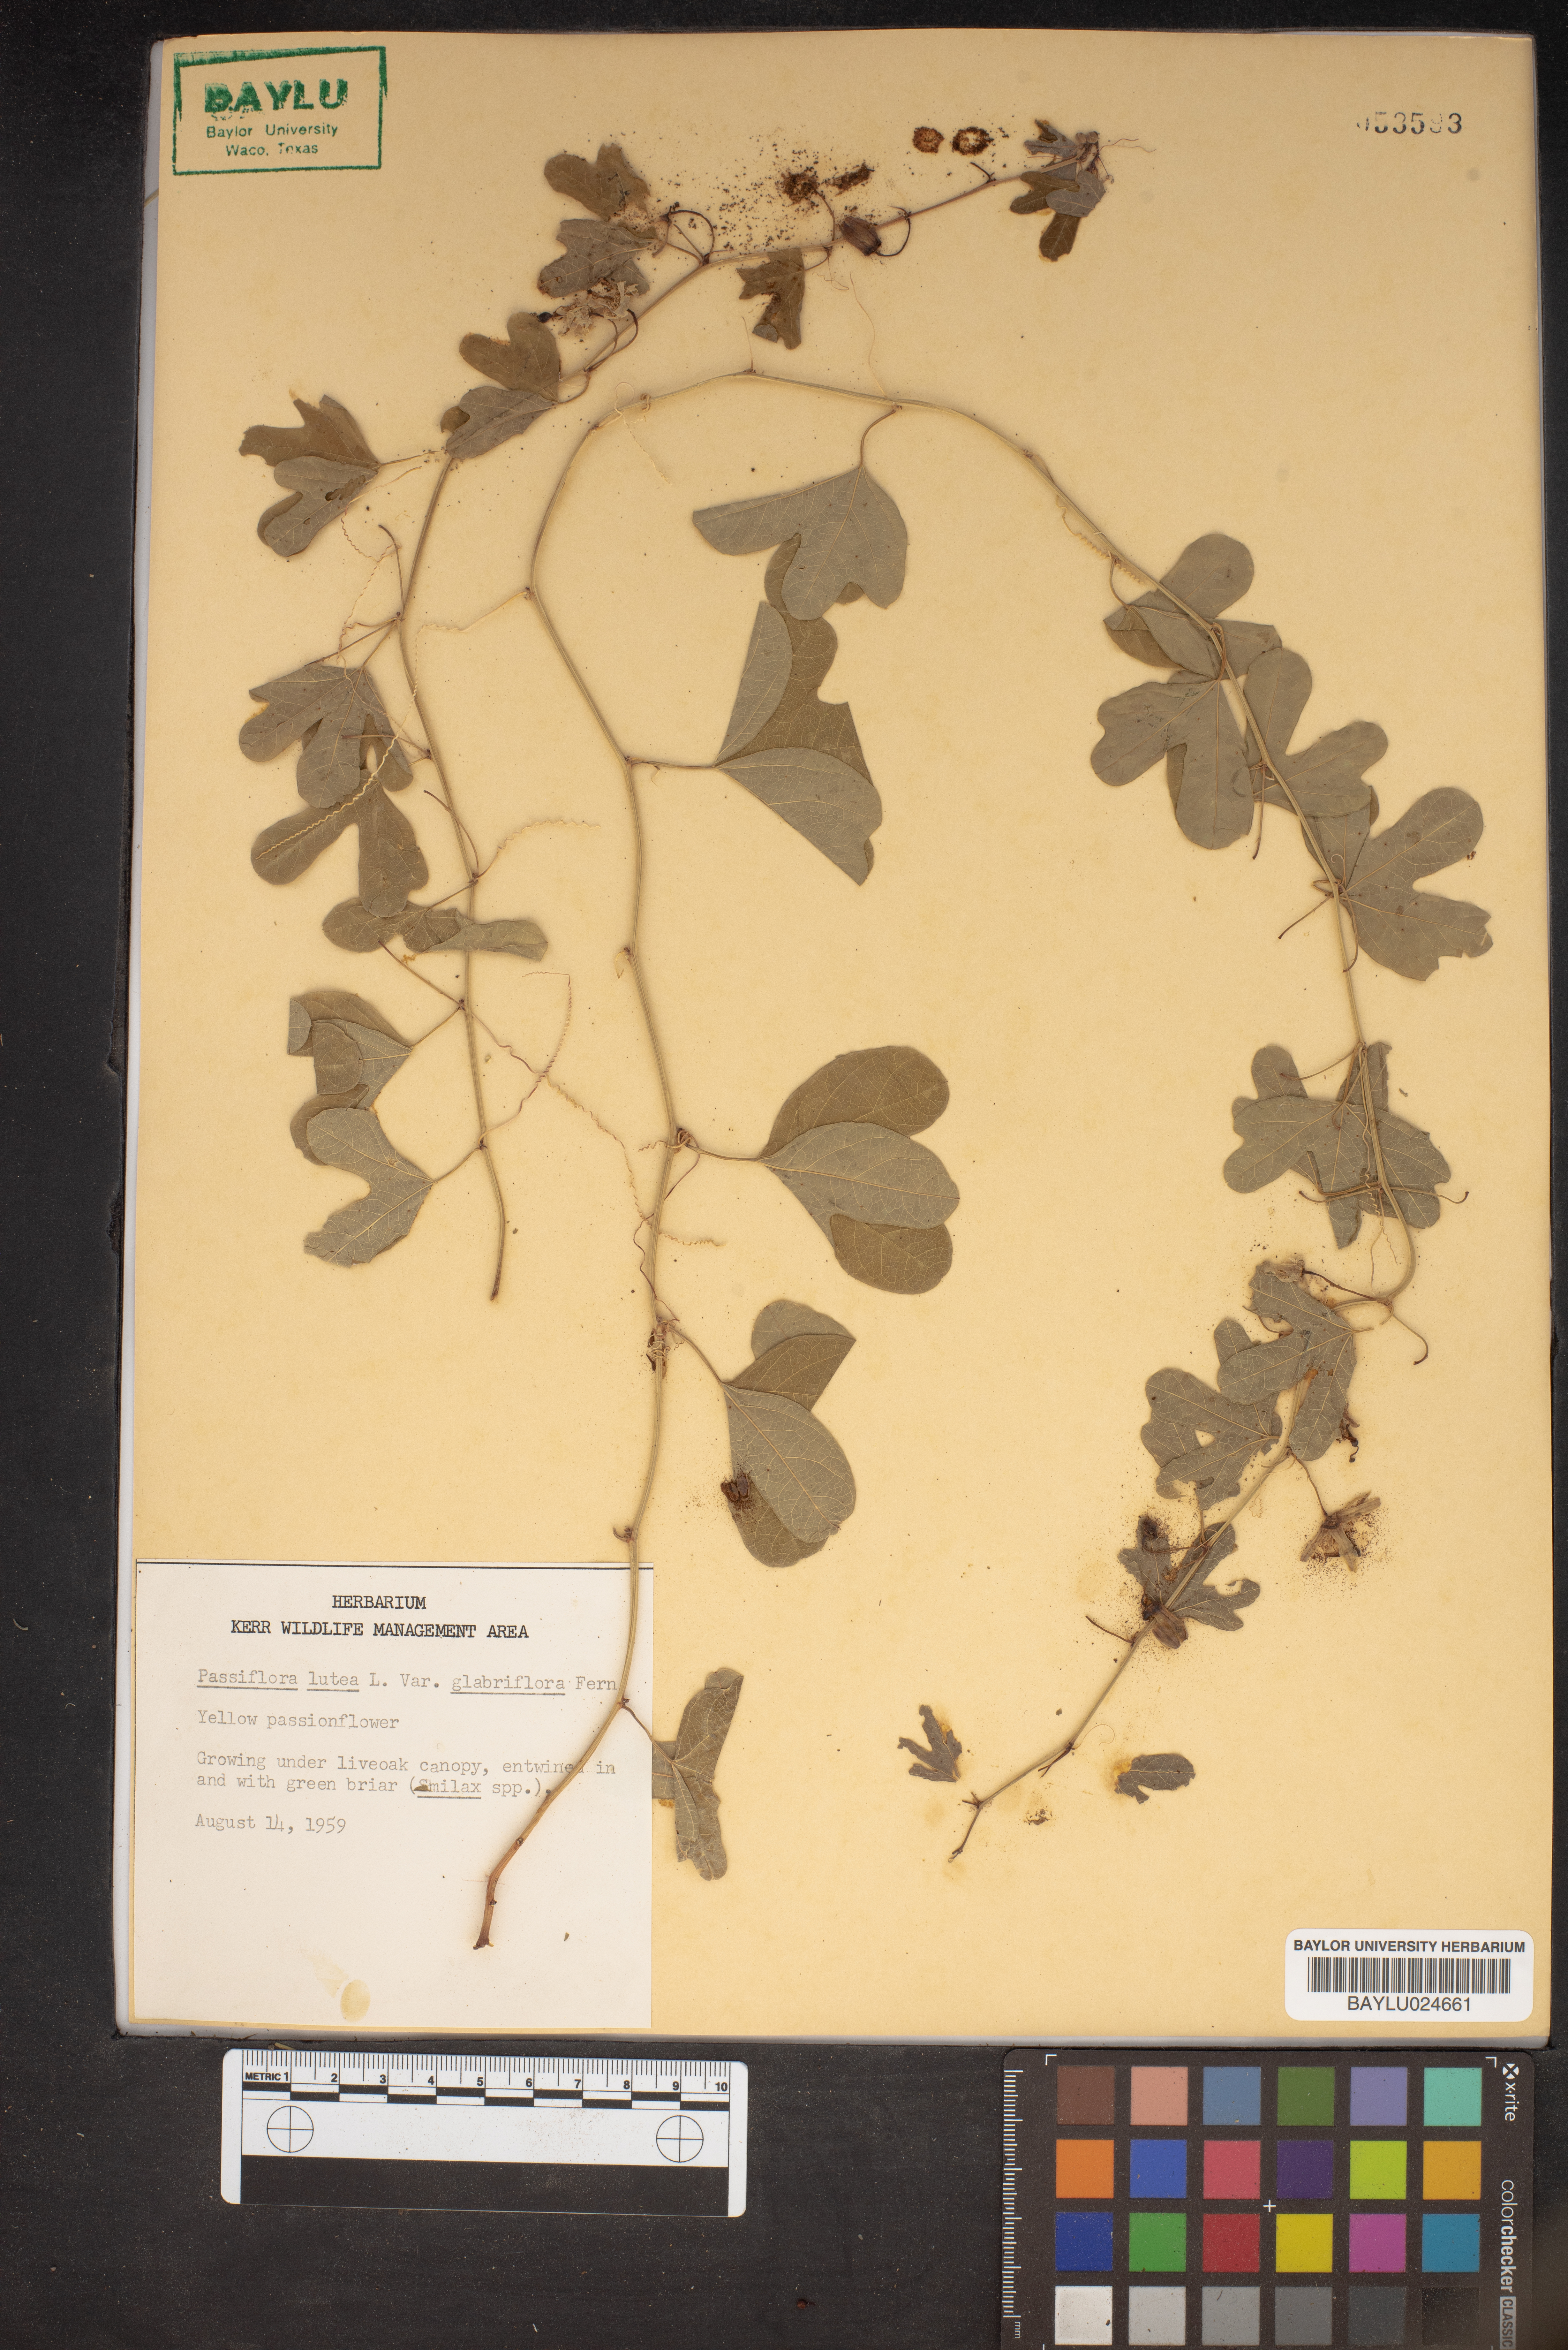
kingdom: Plantae
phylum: Tracheophyta
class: Magnoliopsida
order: Malpighiales
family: Passifloraceae
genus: Passiflora
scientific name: Passiflora lutea
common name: Yellow passionflower
